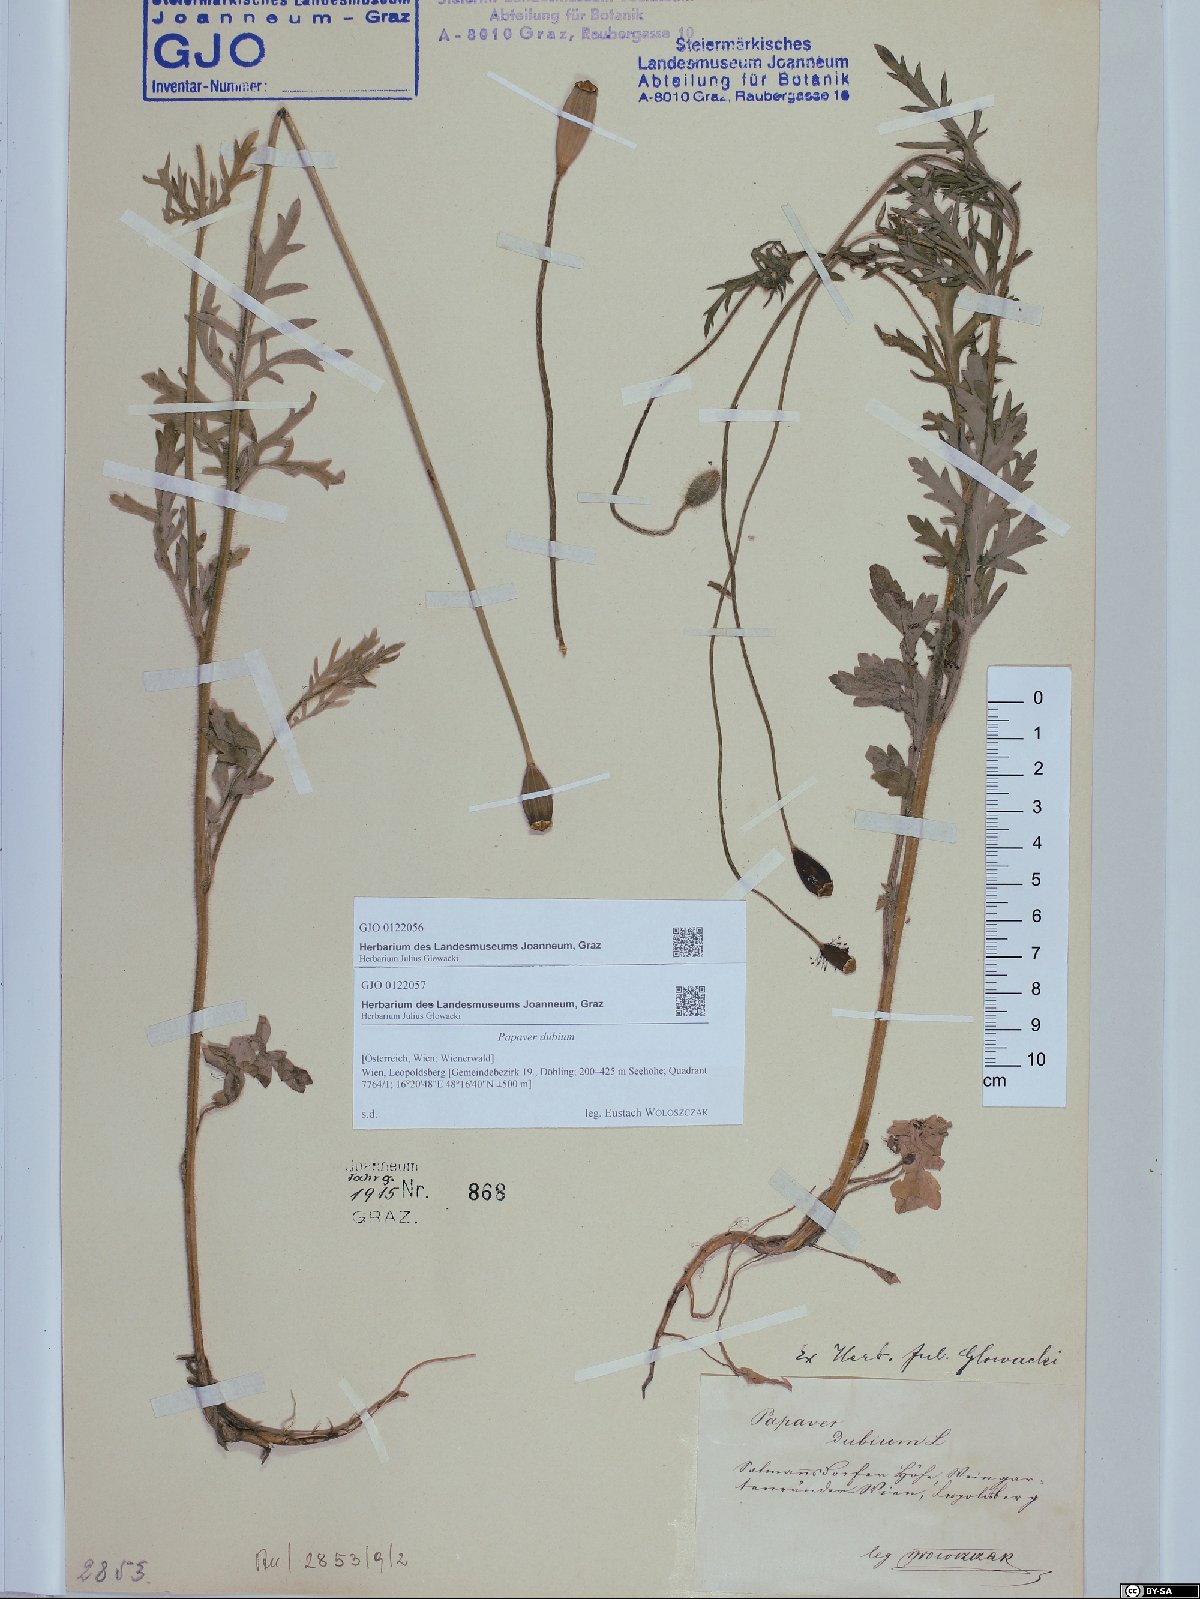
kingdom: Plantae
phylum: Tracheophyta
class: Magnoliopsida
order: Ranunculales
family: Papaveraceae
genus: Papaver
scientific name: Papaver dubium
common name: Long-headed poppy
